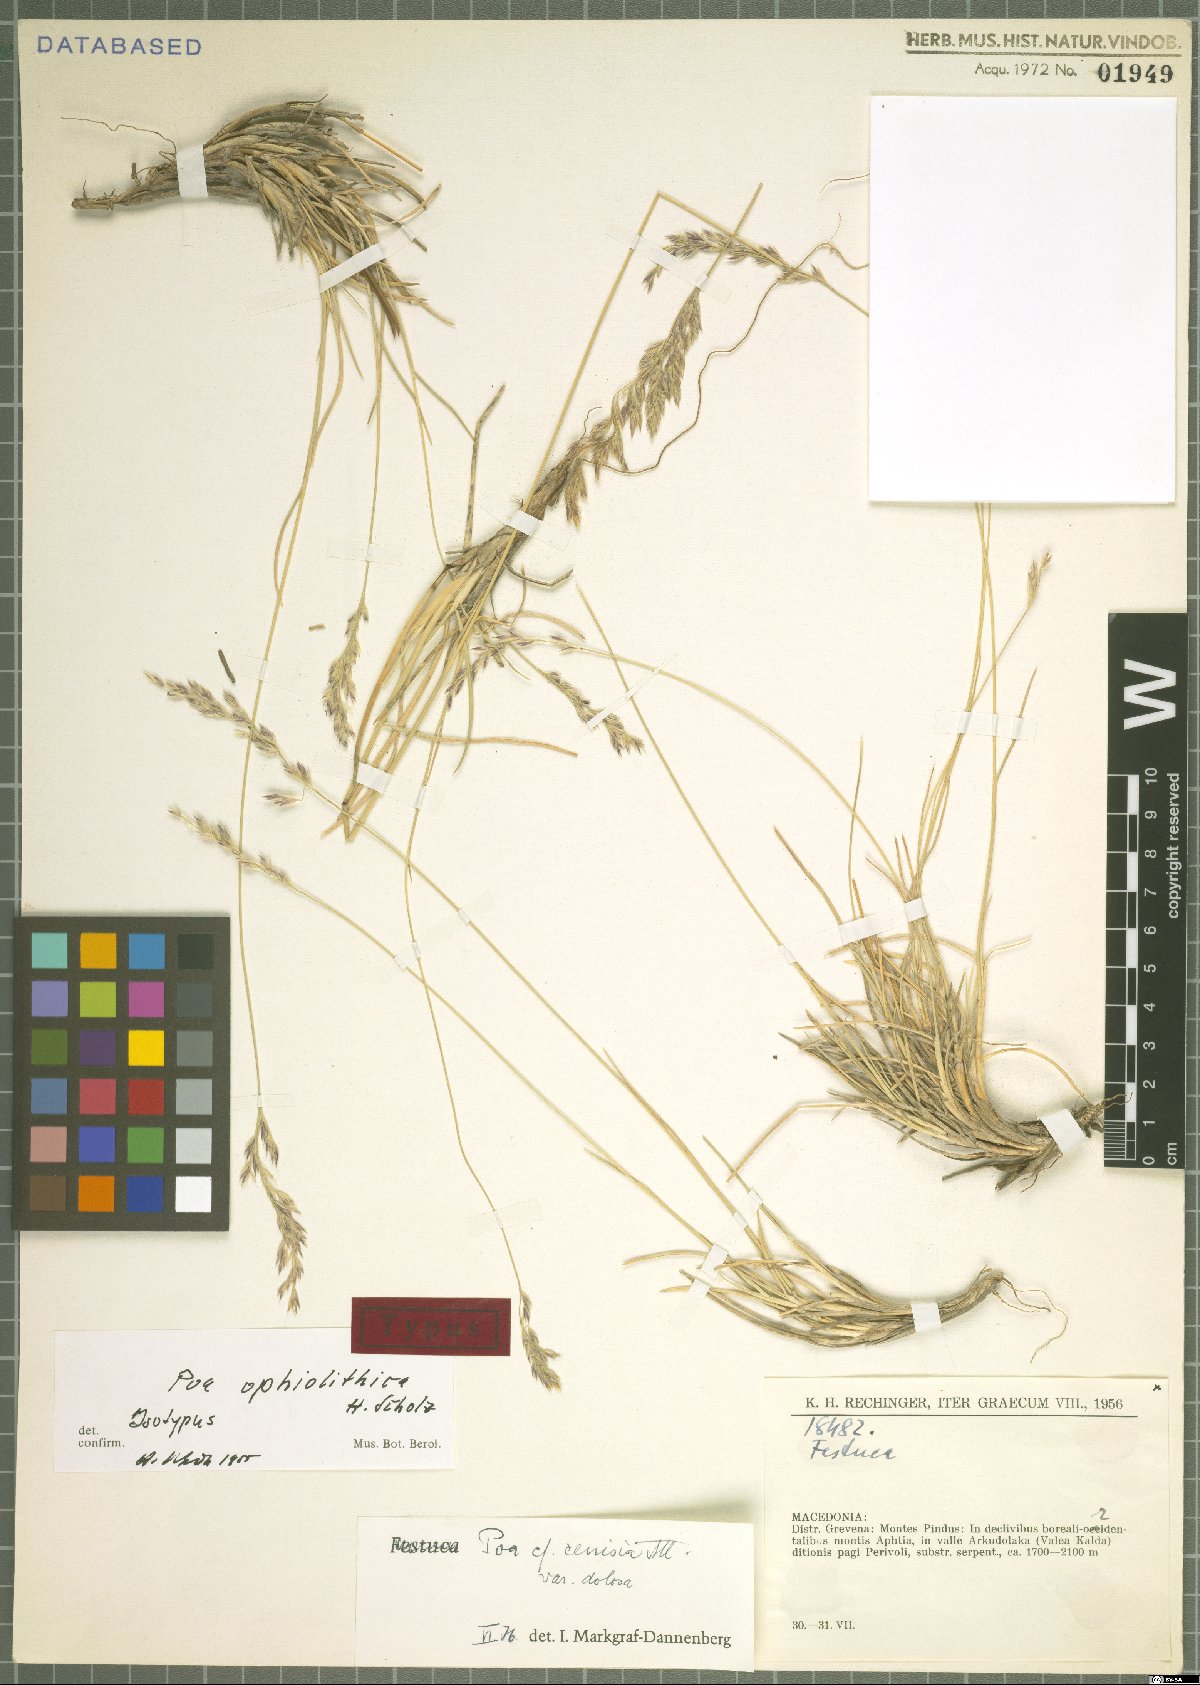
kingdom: Plantae
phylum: Tracheophyta
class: Liliopsida
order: Poales
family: Poaceae
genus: Poa
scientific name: Poa cenisia
